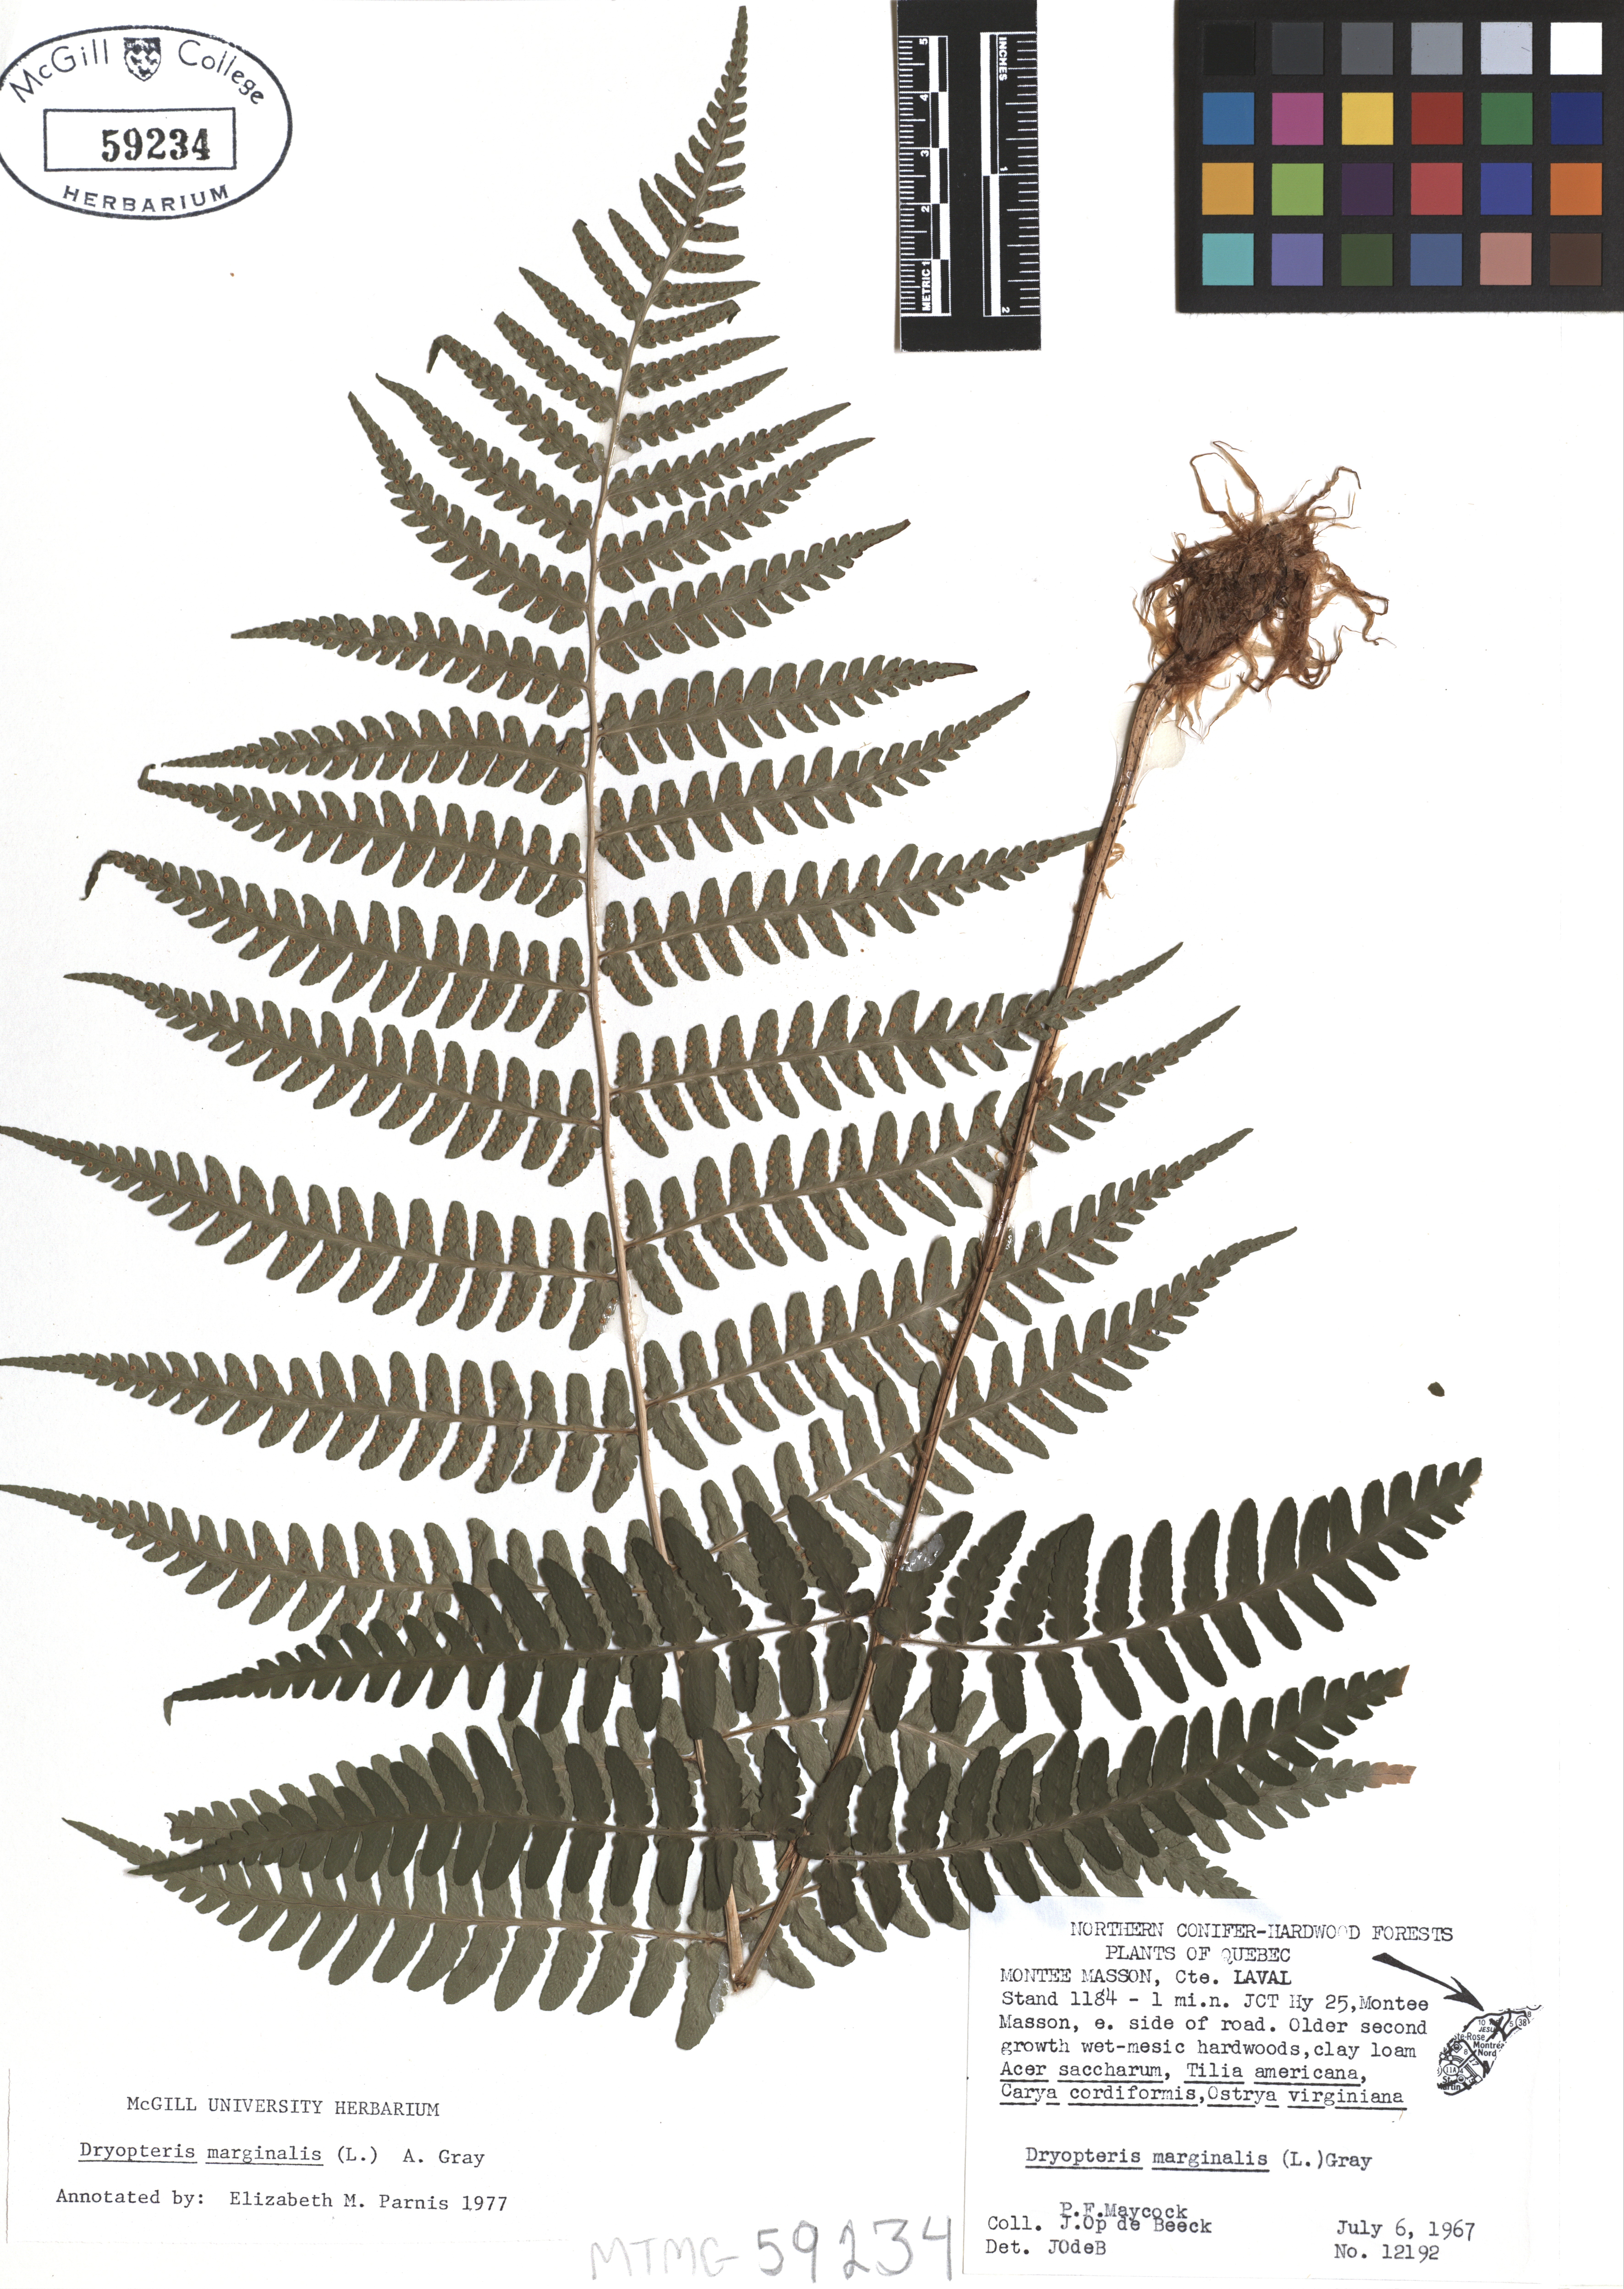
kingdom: Plantae
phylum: Tracheophyta
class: Polypodiopsida
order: Polypodiales
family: Dryopteridaceae
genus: Dryopteris
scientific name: Dryopteris marginalis
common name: Marginal wood fern
